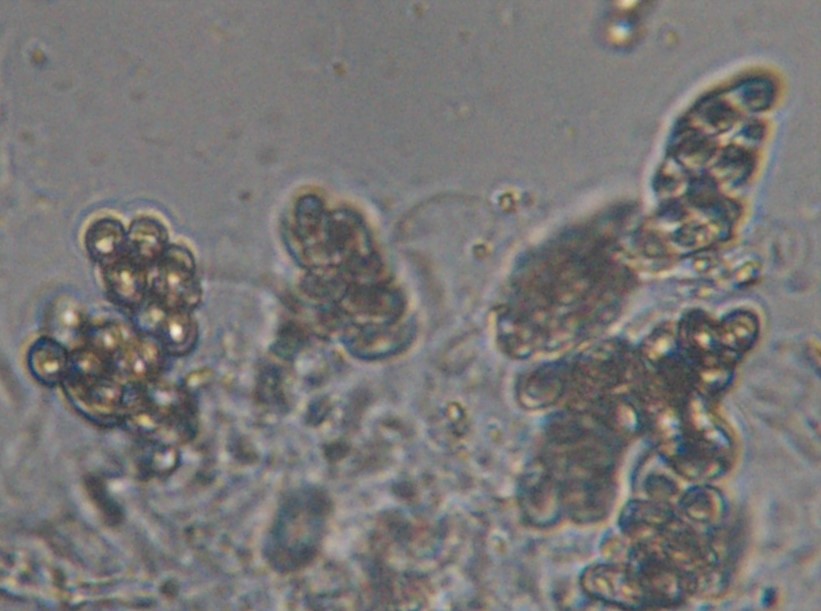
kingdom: Fungi
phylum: Ascomycota
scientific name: Ascomycota
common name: sæksvampe
